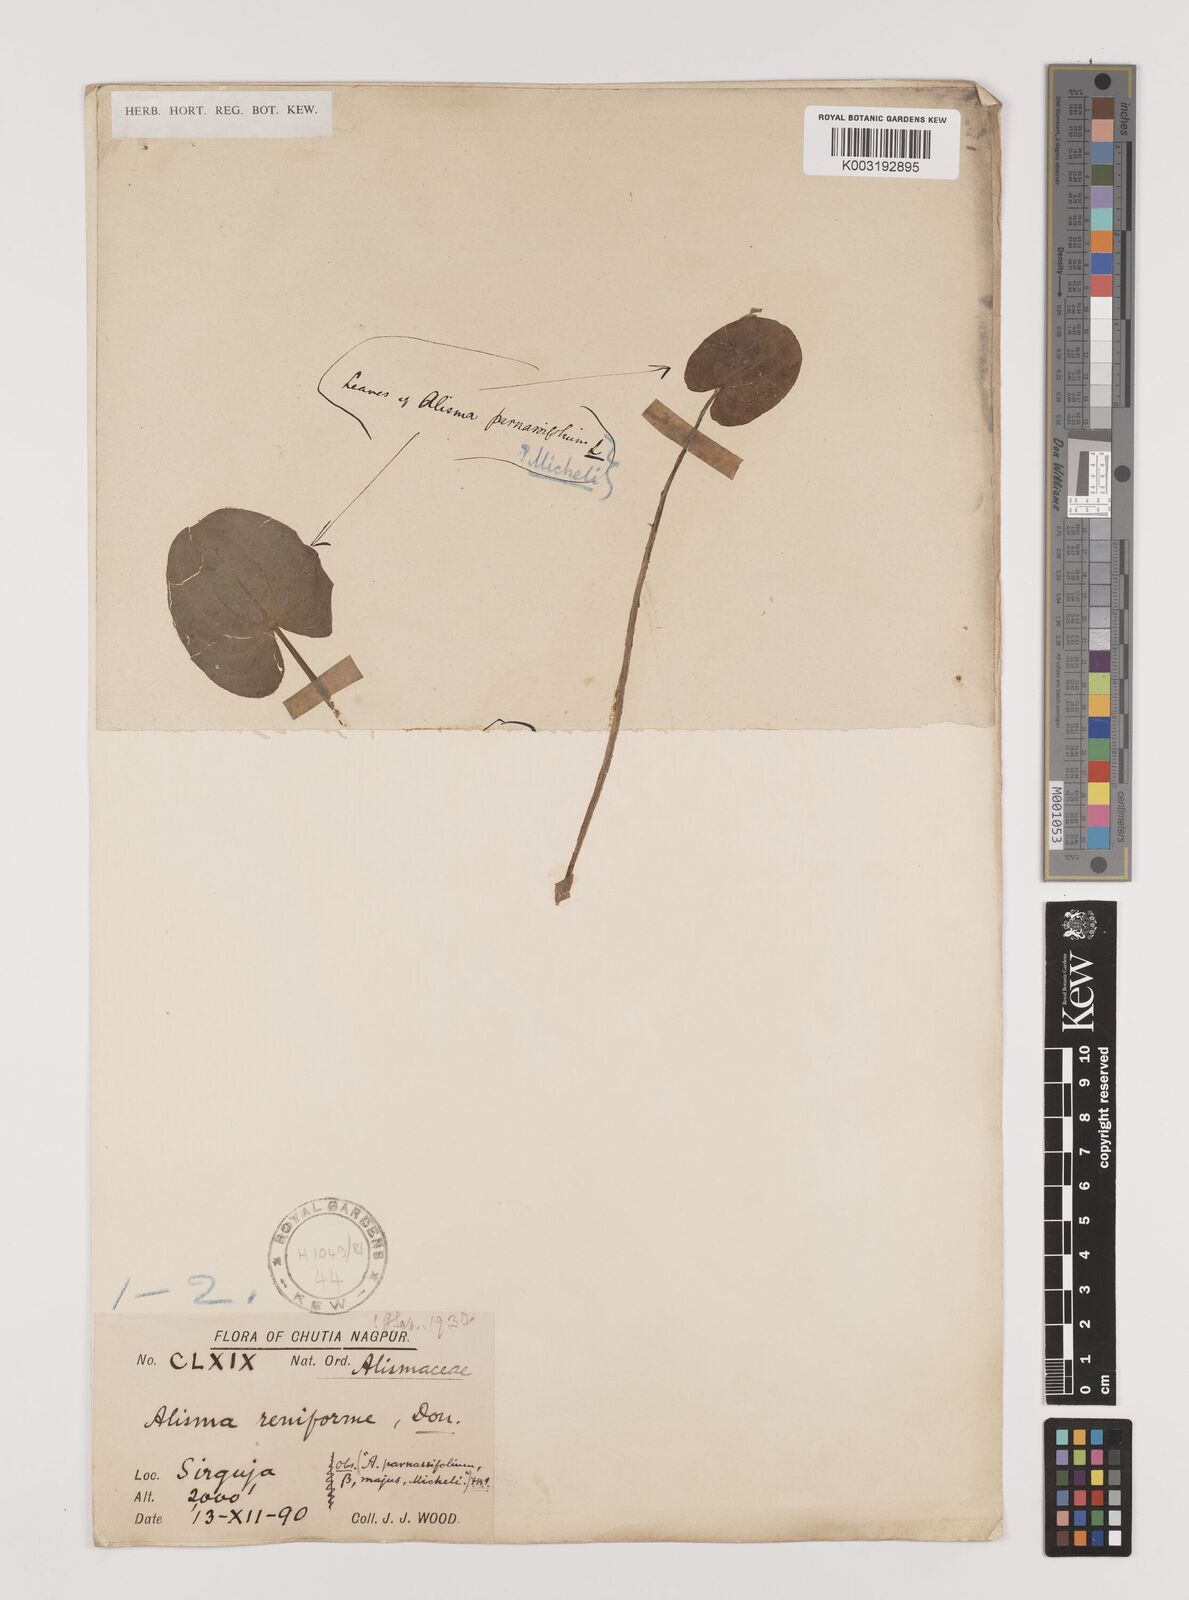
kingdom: Plantae
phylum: Tracheophyta
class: Liliopsida
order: Alismatales
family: Alismataceae
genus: Caldesia
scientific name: Caldesia parnassifolia
